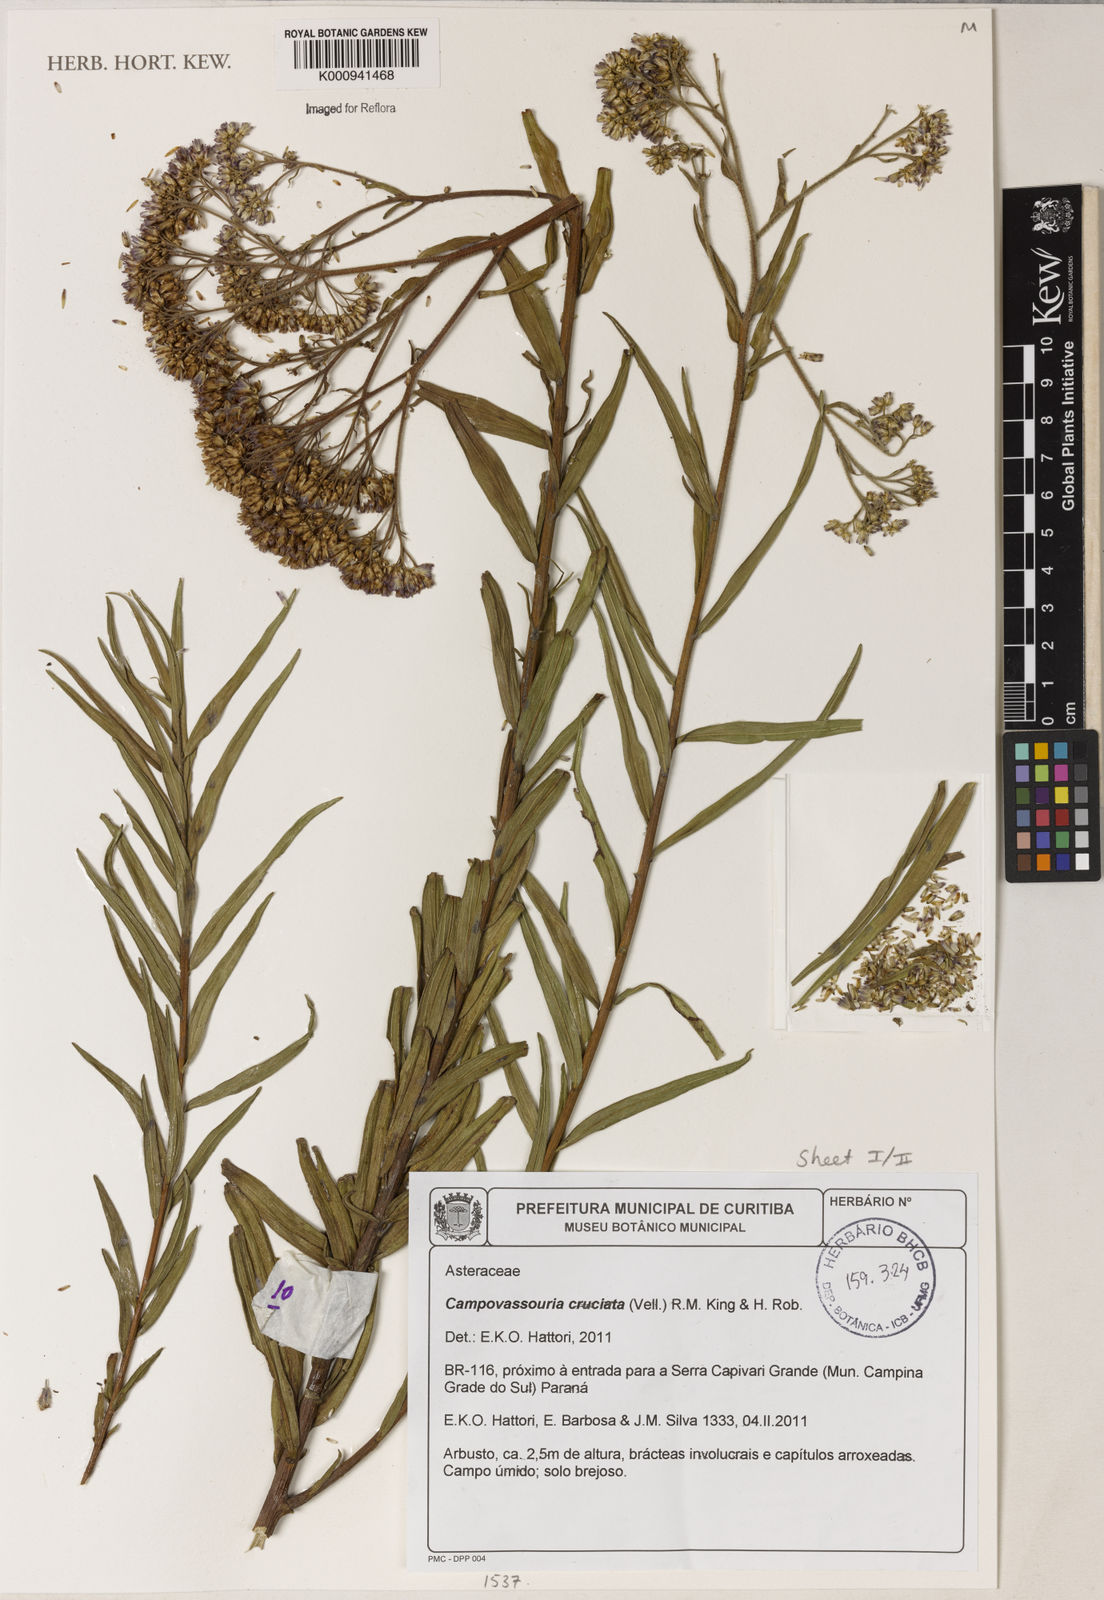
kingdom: Plantae
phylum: Tracheophyta
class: Magnoliopsida
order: Asterales
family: Asteraceae
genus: Campovassouria
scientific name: Campovassouria cruciata
